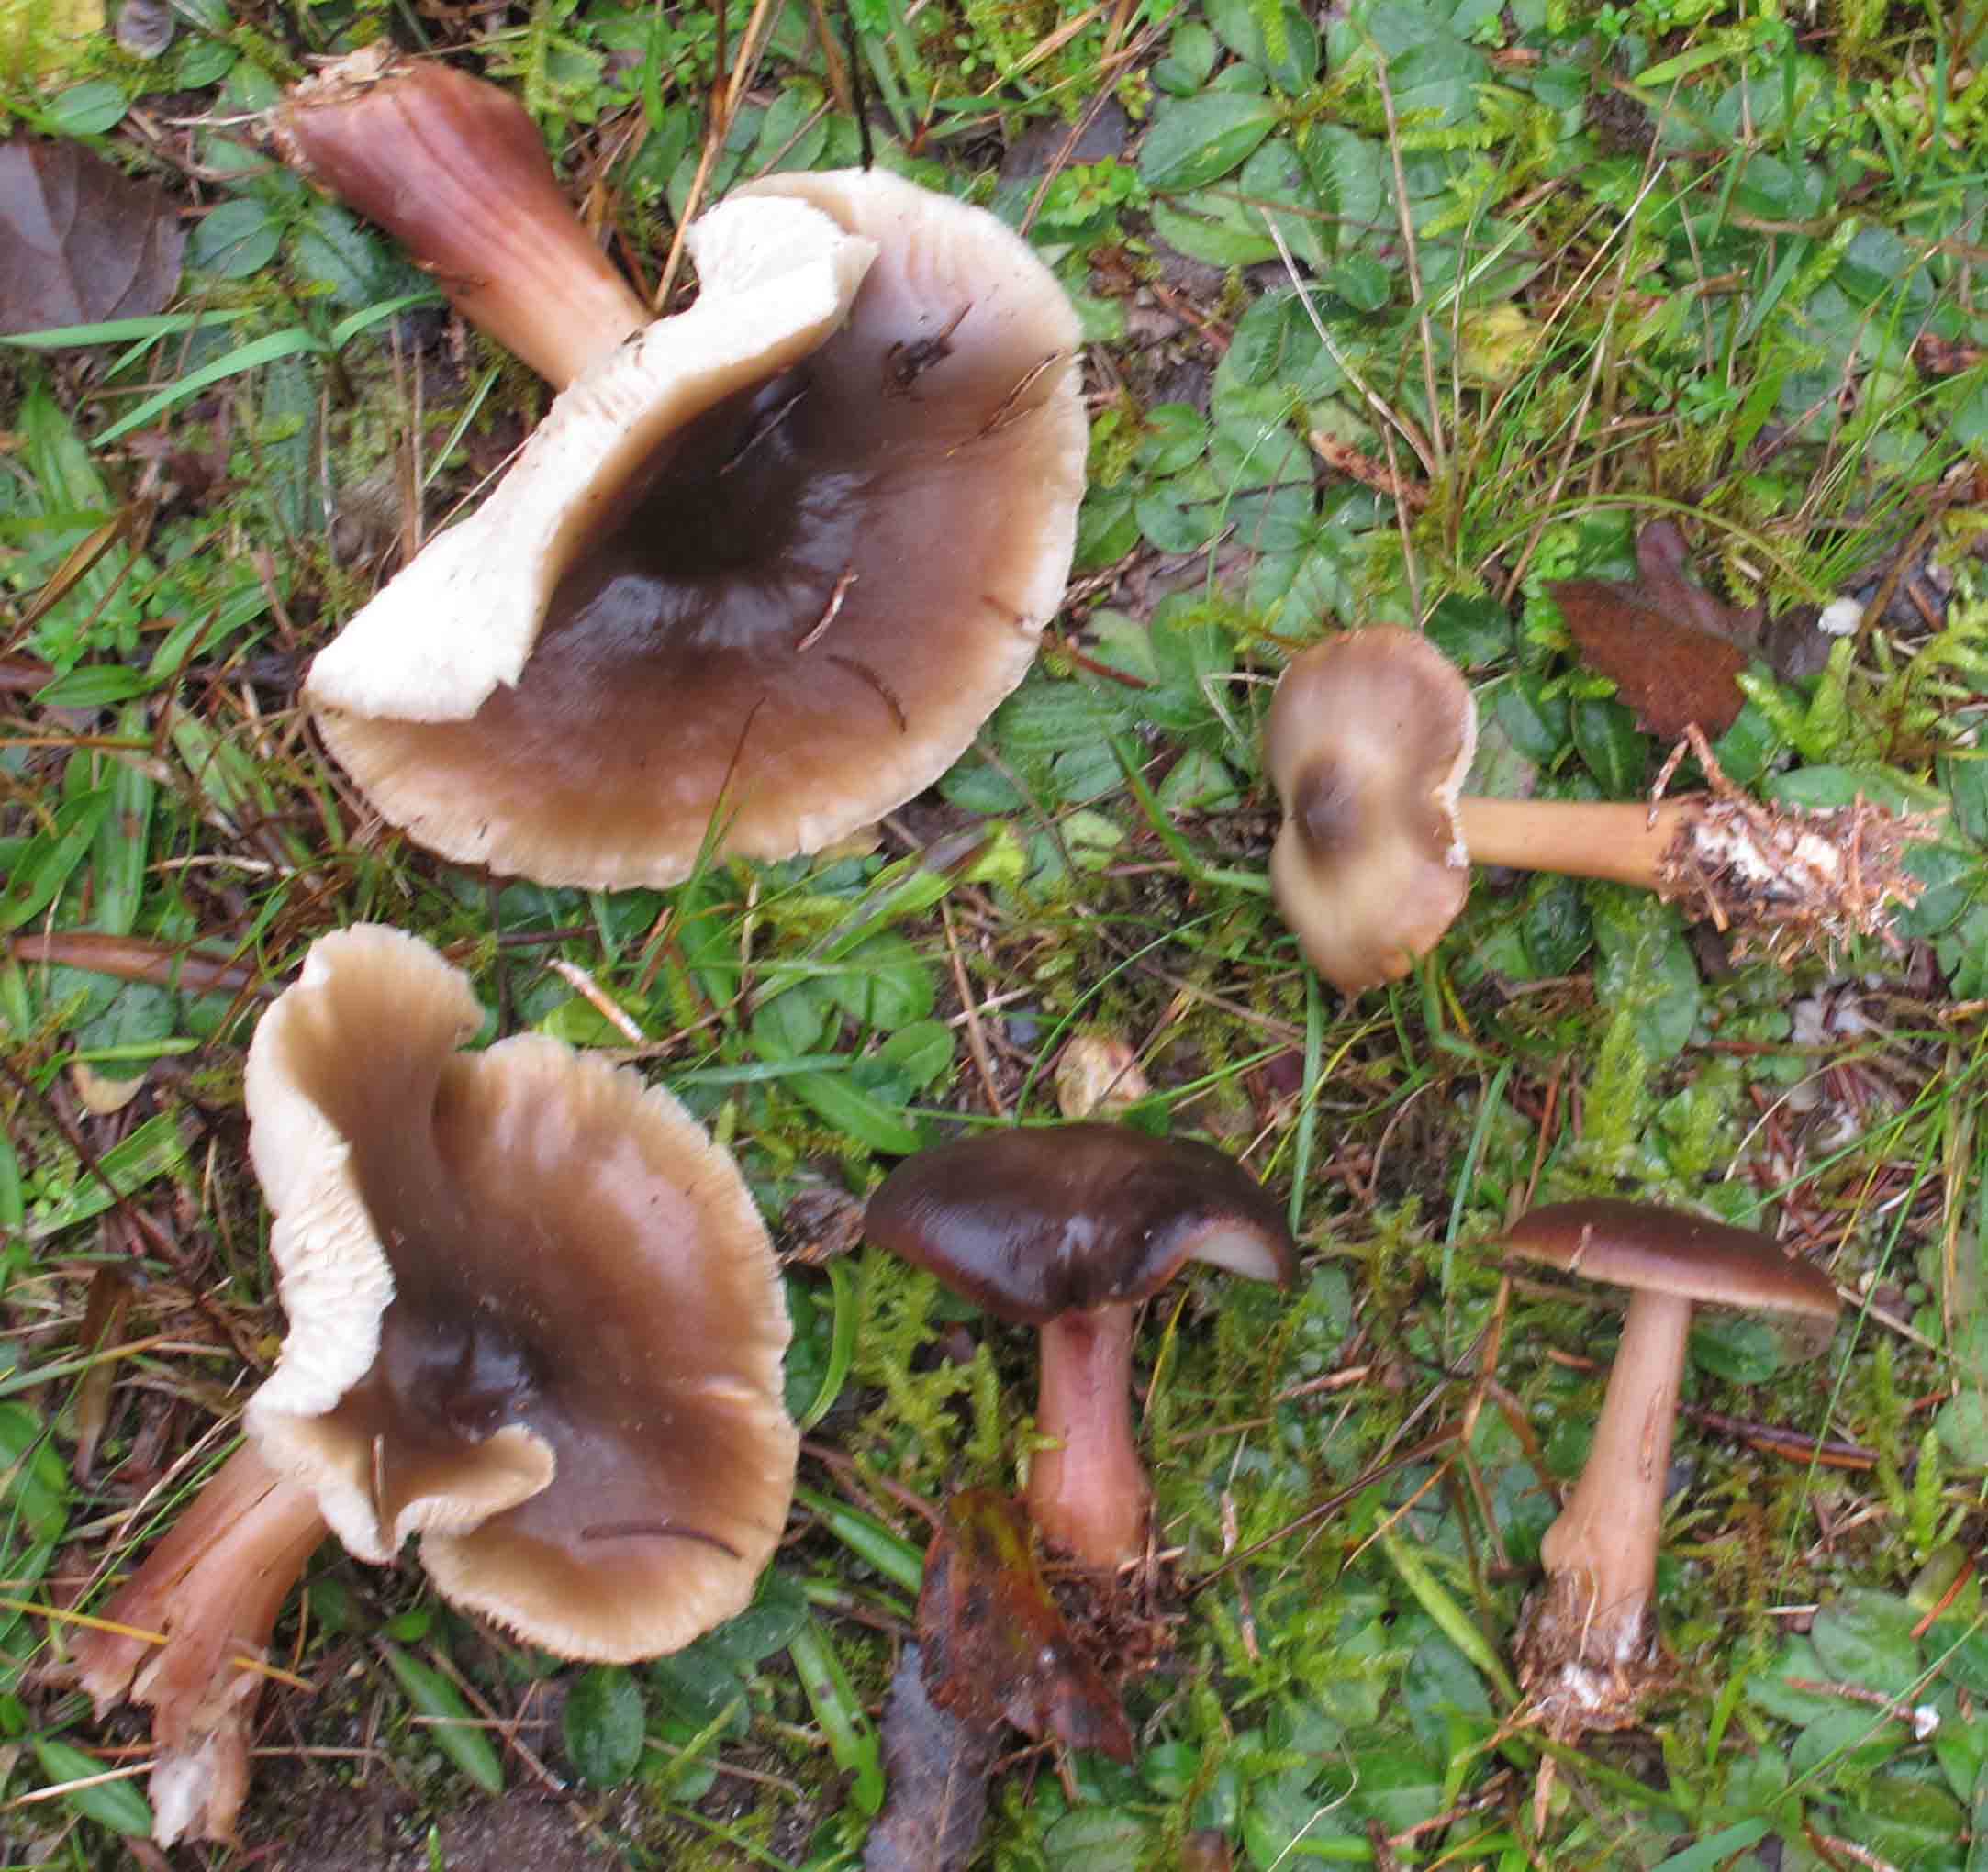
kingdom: Fungi
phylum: Basidiomycota
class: Agaricomycetes
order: Agaricales
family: Omphalotaceae
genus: Rhodocollybia
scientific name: Rhodocollybia asema
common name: horngrå fladhat
